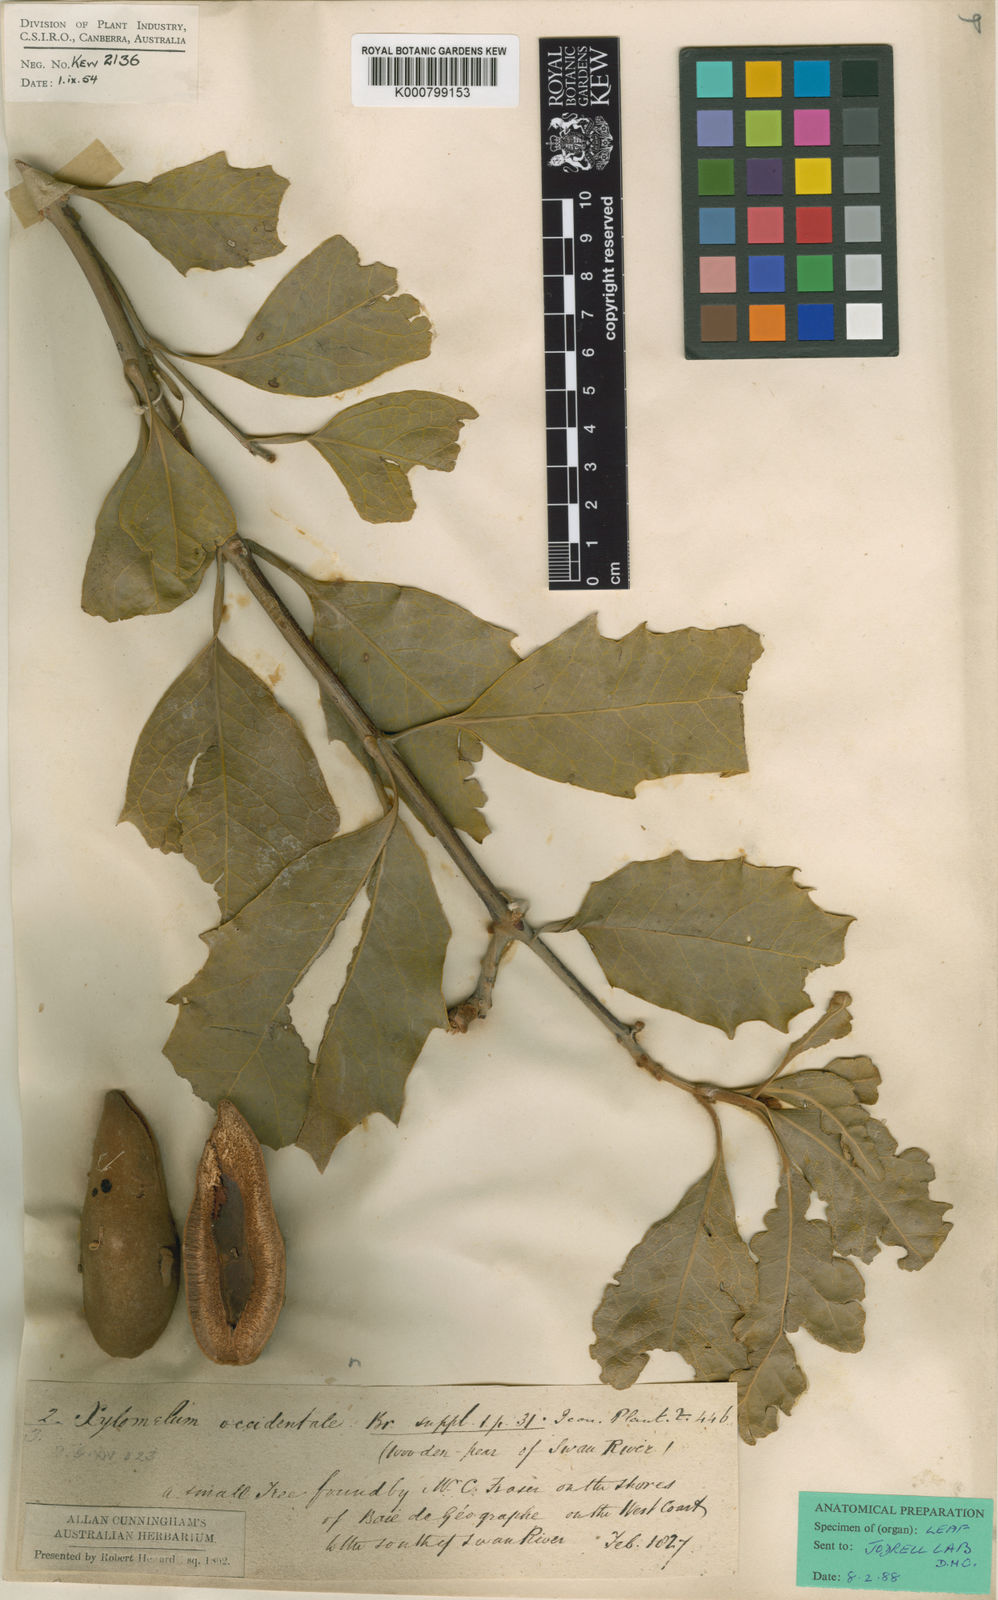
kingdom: Plantae
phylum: Tracheophyta
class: Magnoliopsida
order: Proteales
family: Proteaceae
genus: Xylomelum
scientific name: Xylomelum occidentale
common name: Western woody-pear
